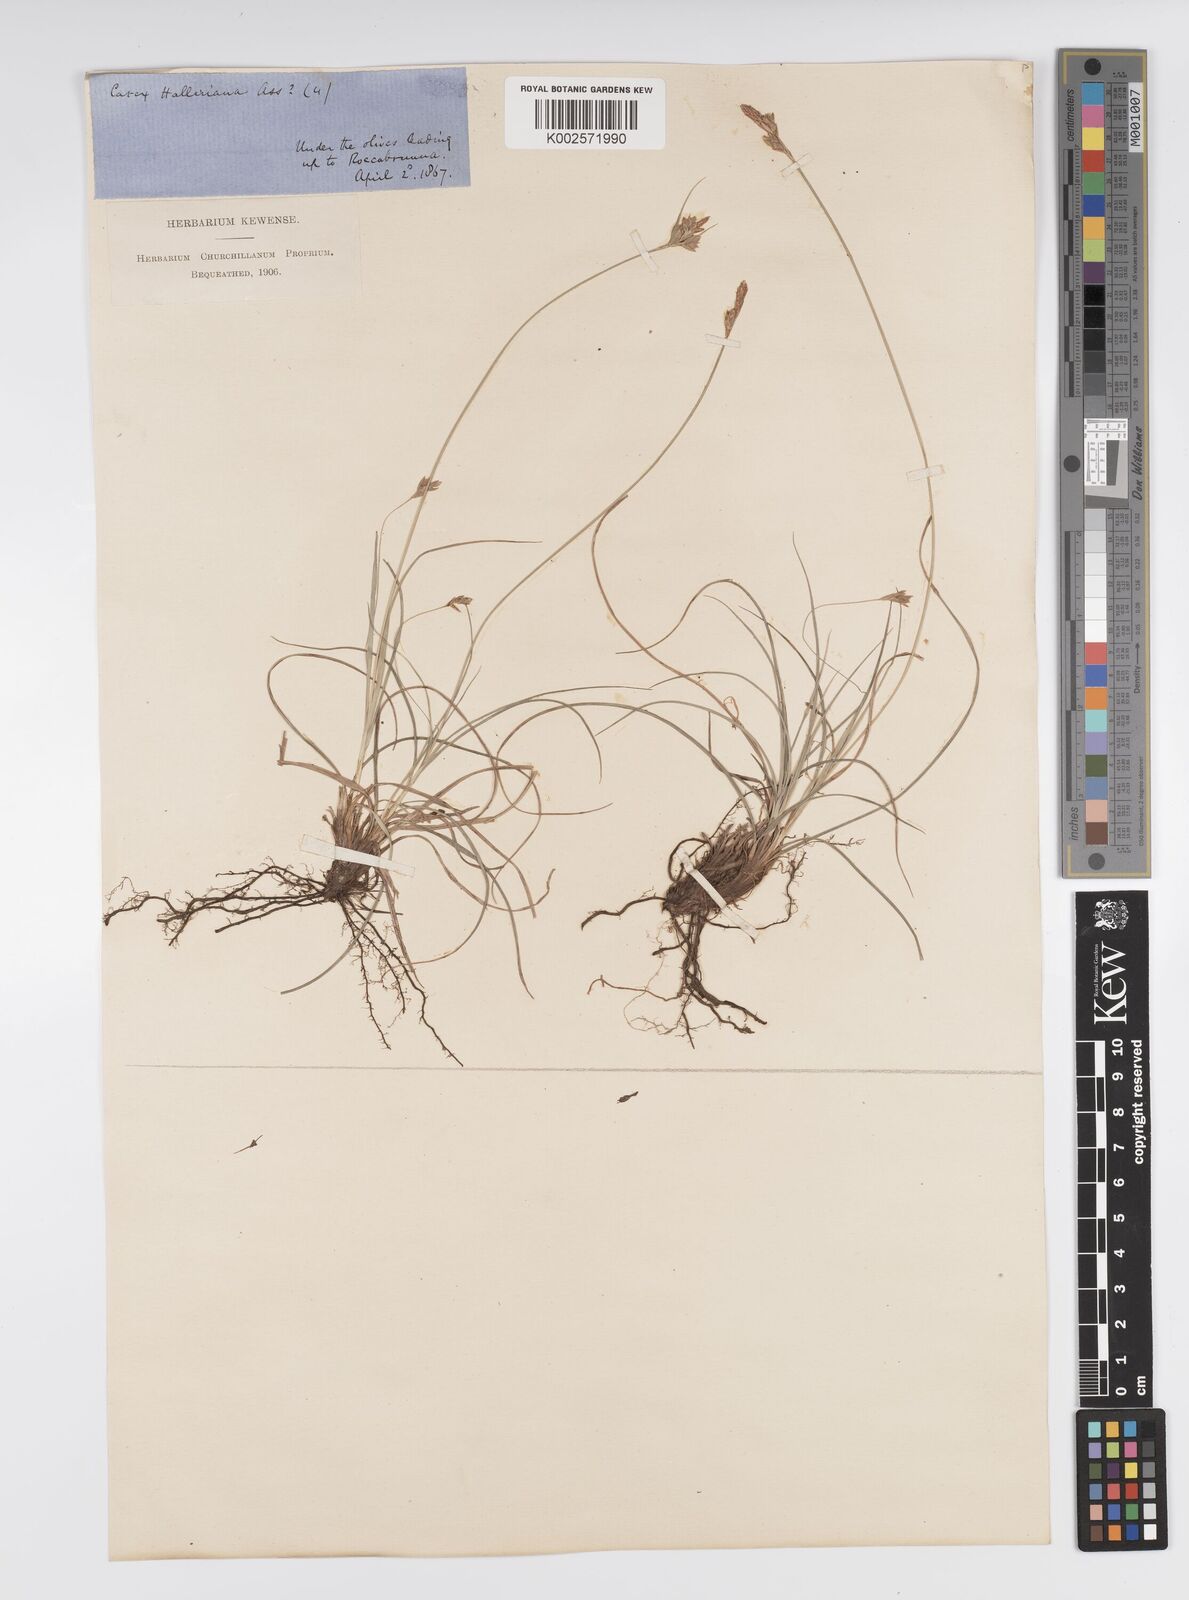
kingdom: Plantae
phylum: Tracheophyta
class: Liliopsida
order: Poales
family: Cyperaceae
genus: Carex
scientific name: Carex halleriana
